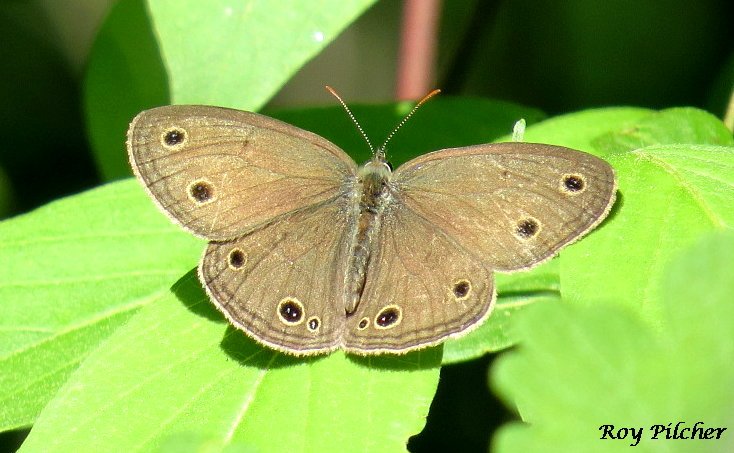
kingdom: Animalia
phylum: Arthropoda
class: Insecta
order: Lepidoptera
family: Nymphalidae
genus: Euptychia
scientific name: Euptychia cymela
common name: Little Wood Satyr
